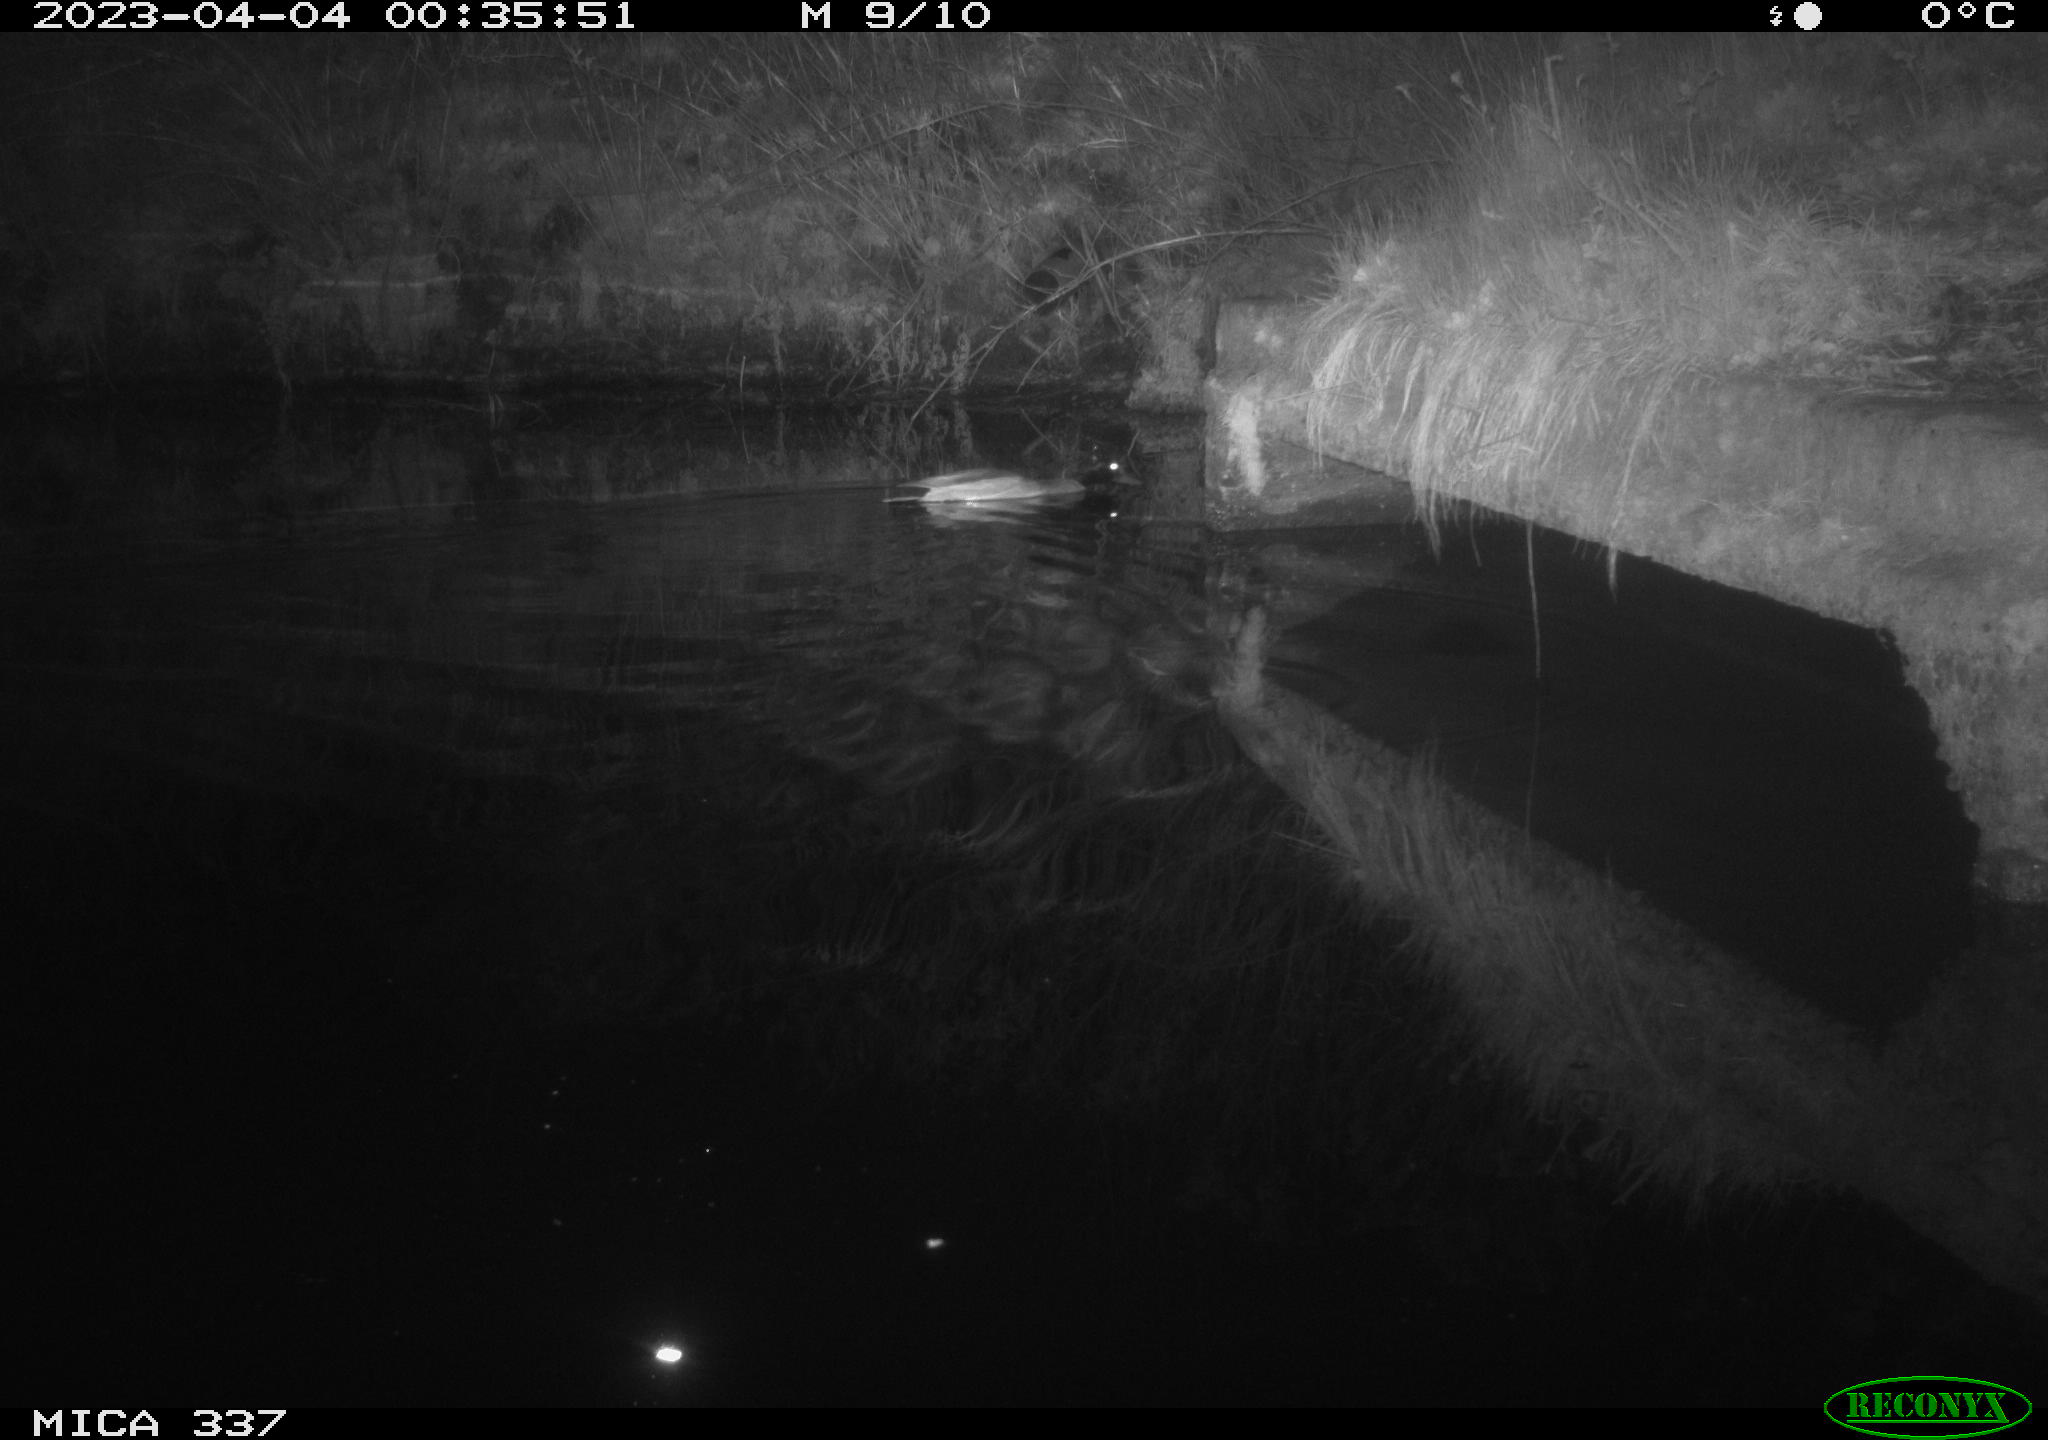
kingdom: Animalia
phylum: Chordata
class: Aves
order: Anseriformes
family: Anatidae
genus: Anas
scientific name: Anas
